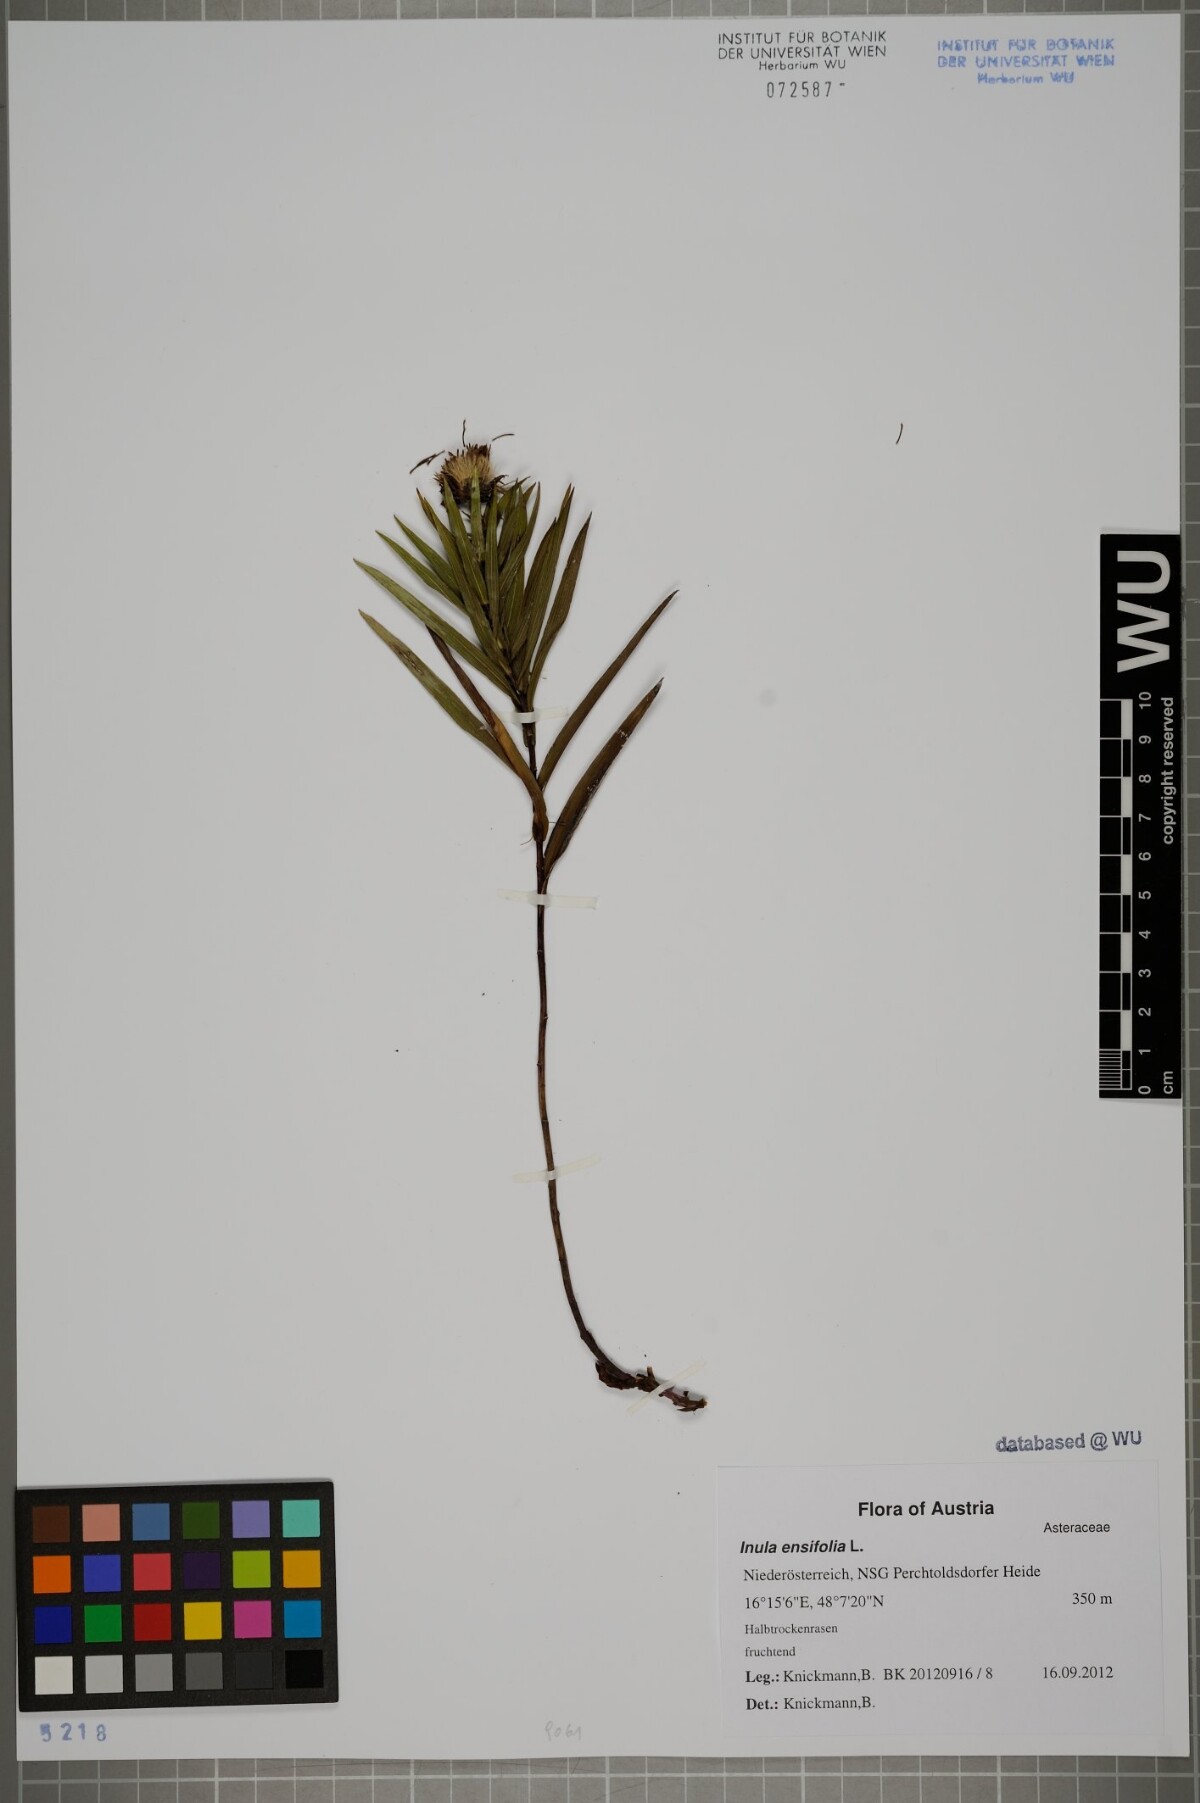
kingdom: Plantae
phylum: Tracheophyta
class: Magnoliopsida
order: Asterales
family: Asteraceae
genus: Pentanema
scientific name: Pentanema ensifolium
